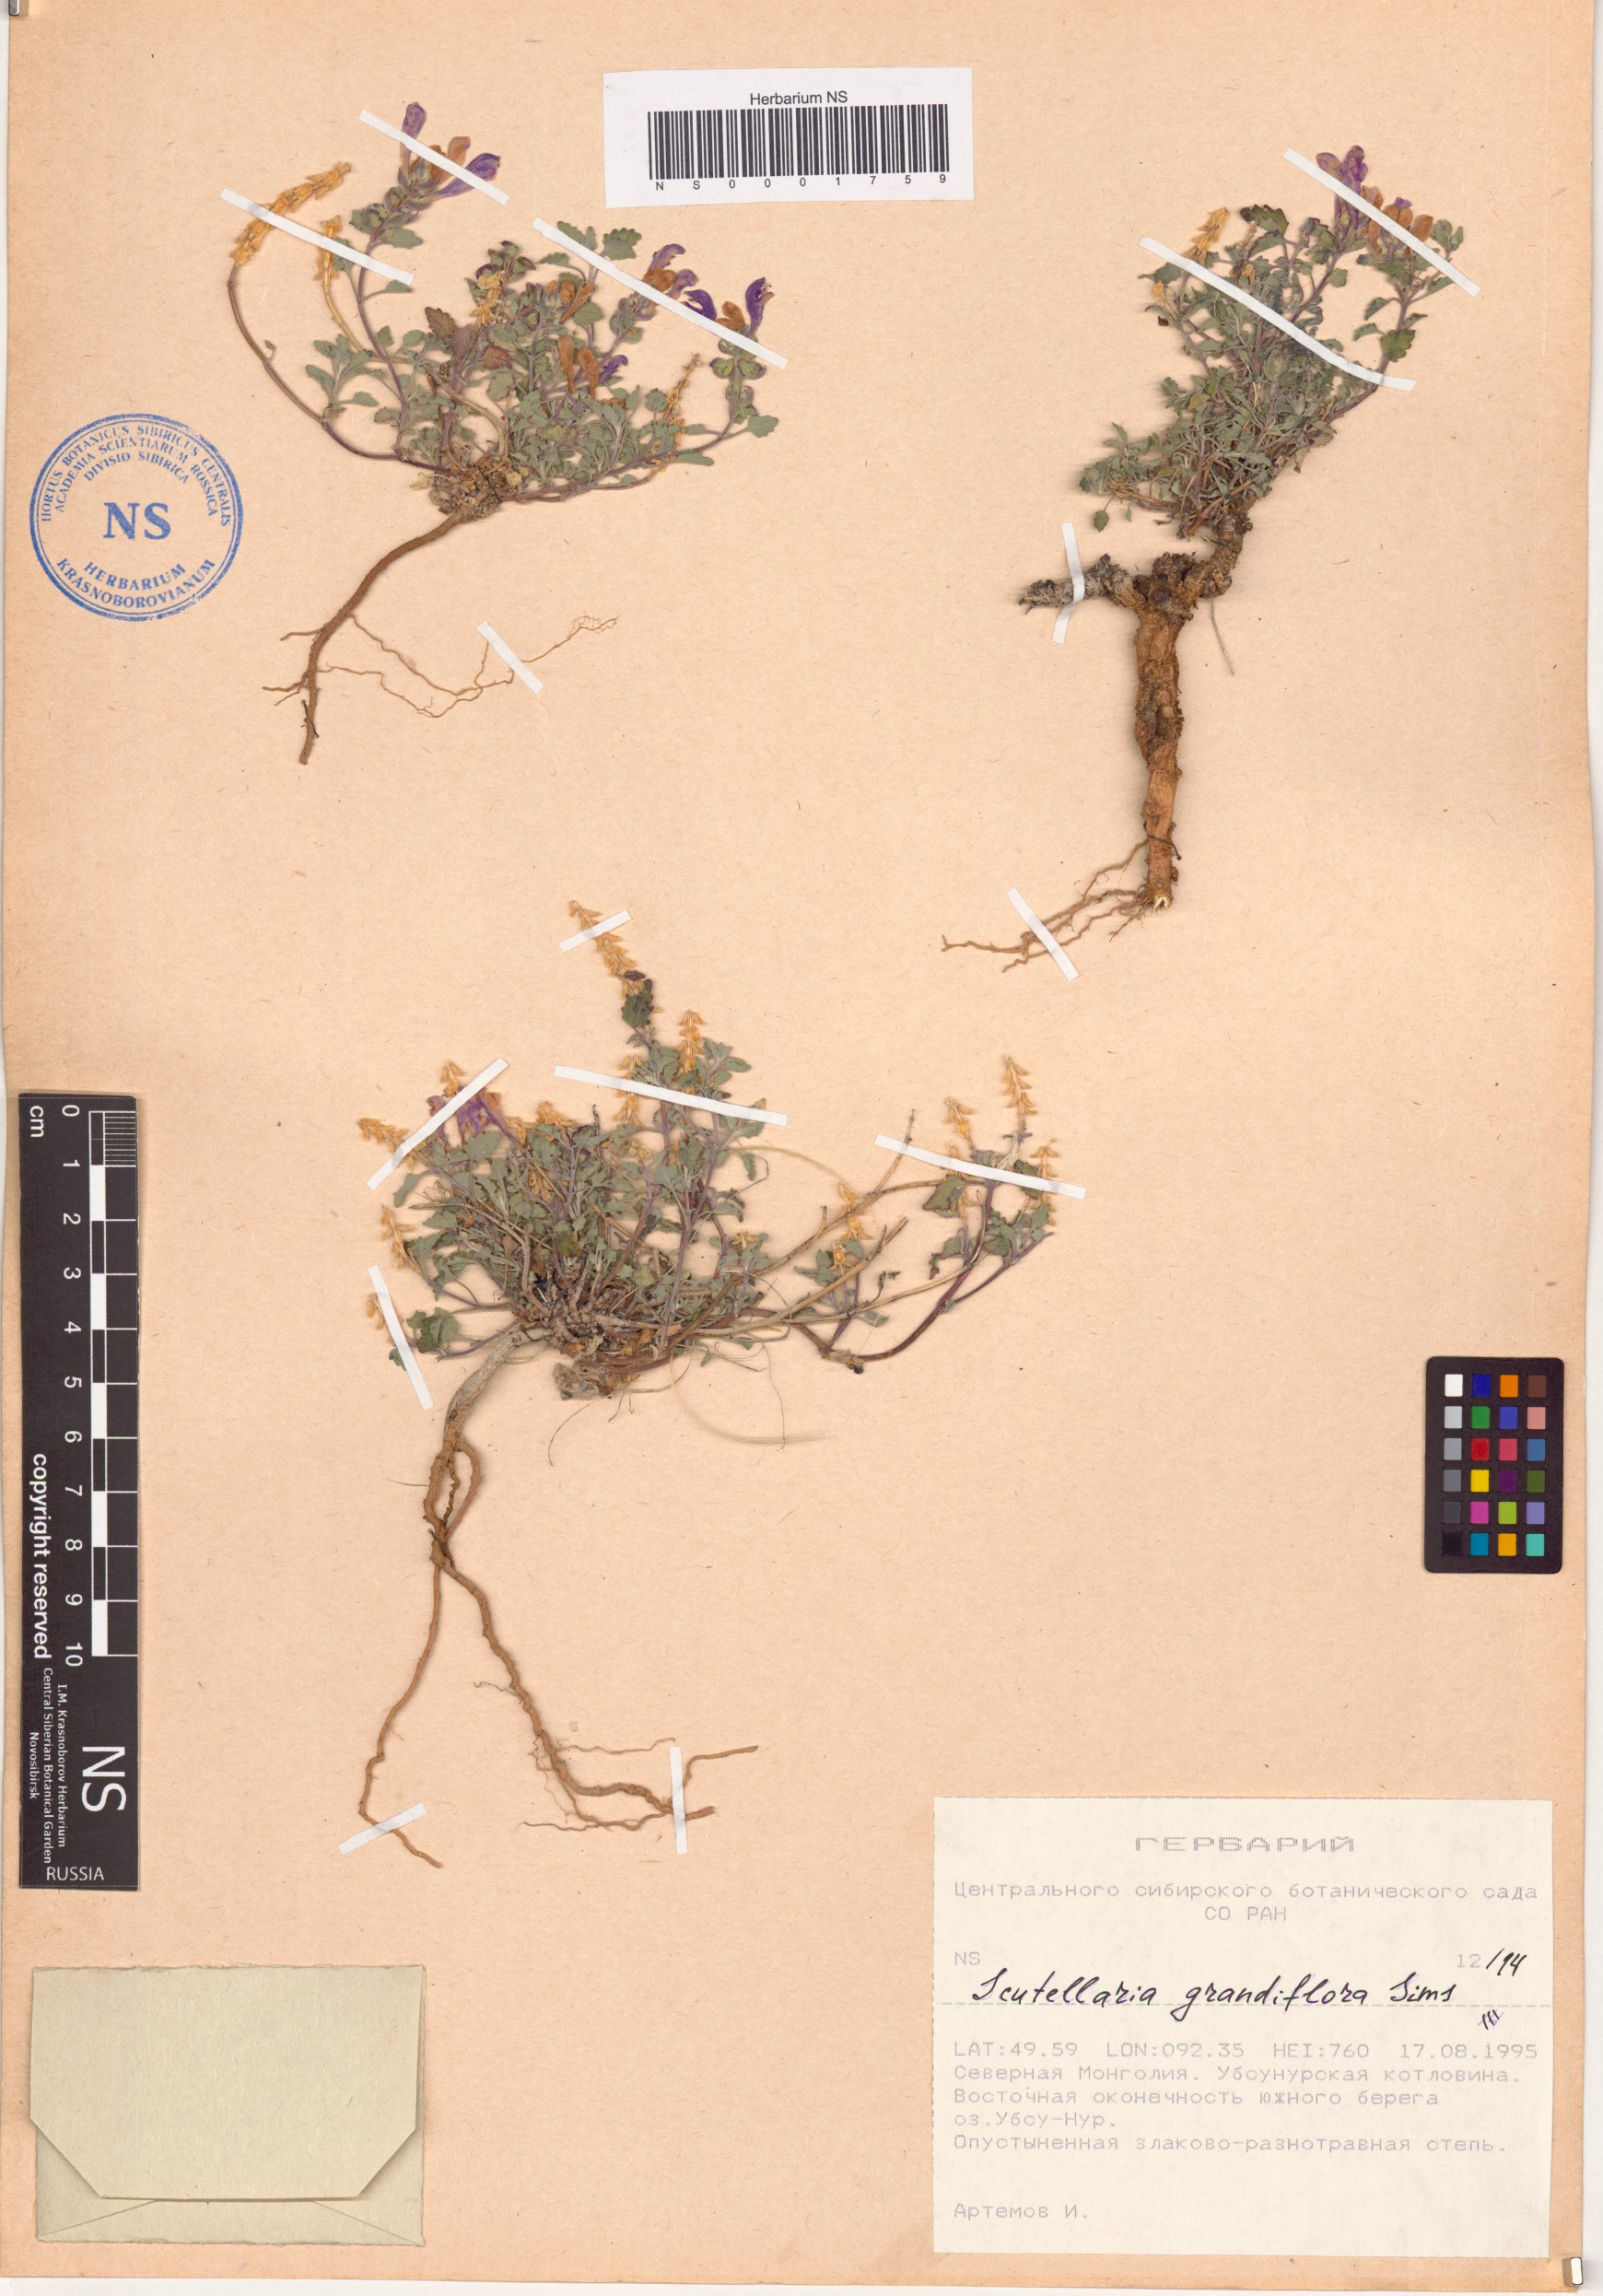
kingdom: Plantae
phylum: Tracheophyta
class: Magnoliopsida
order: Lamiales
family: Lamiaceae
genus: Scutellaria
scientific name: Scutellaria grandiflora
